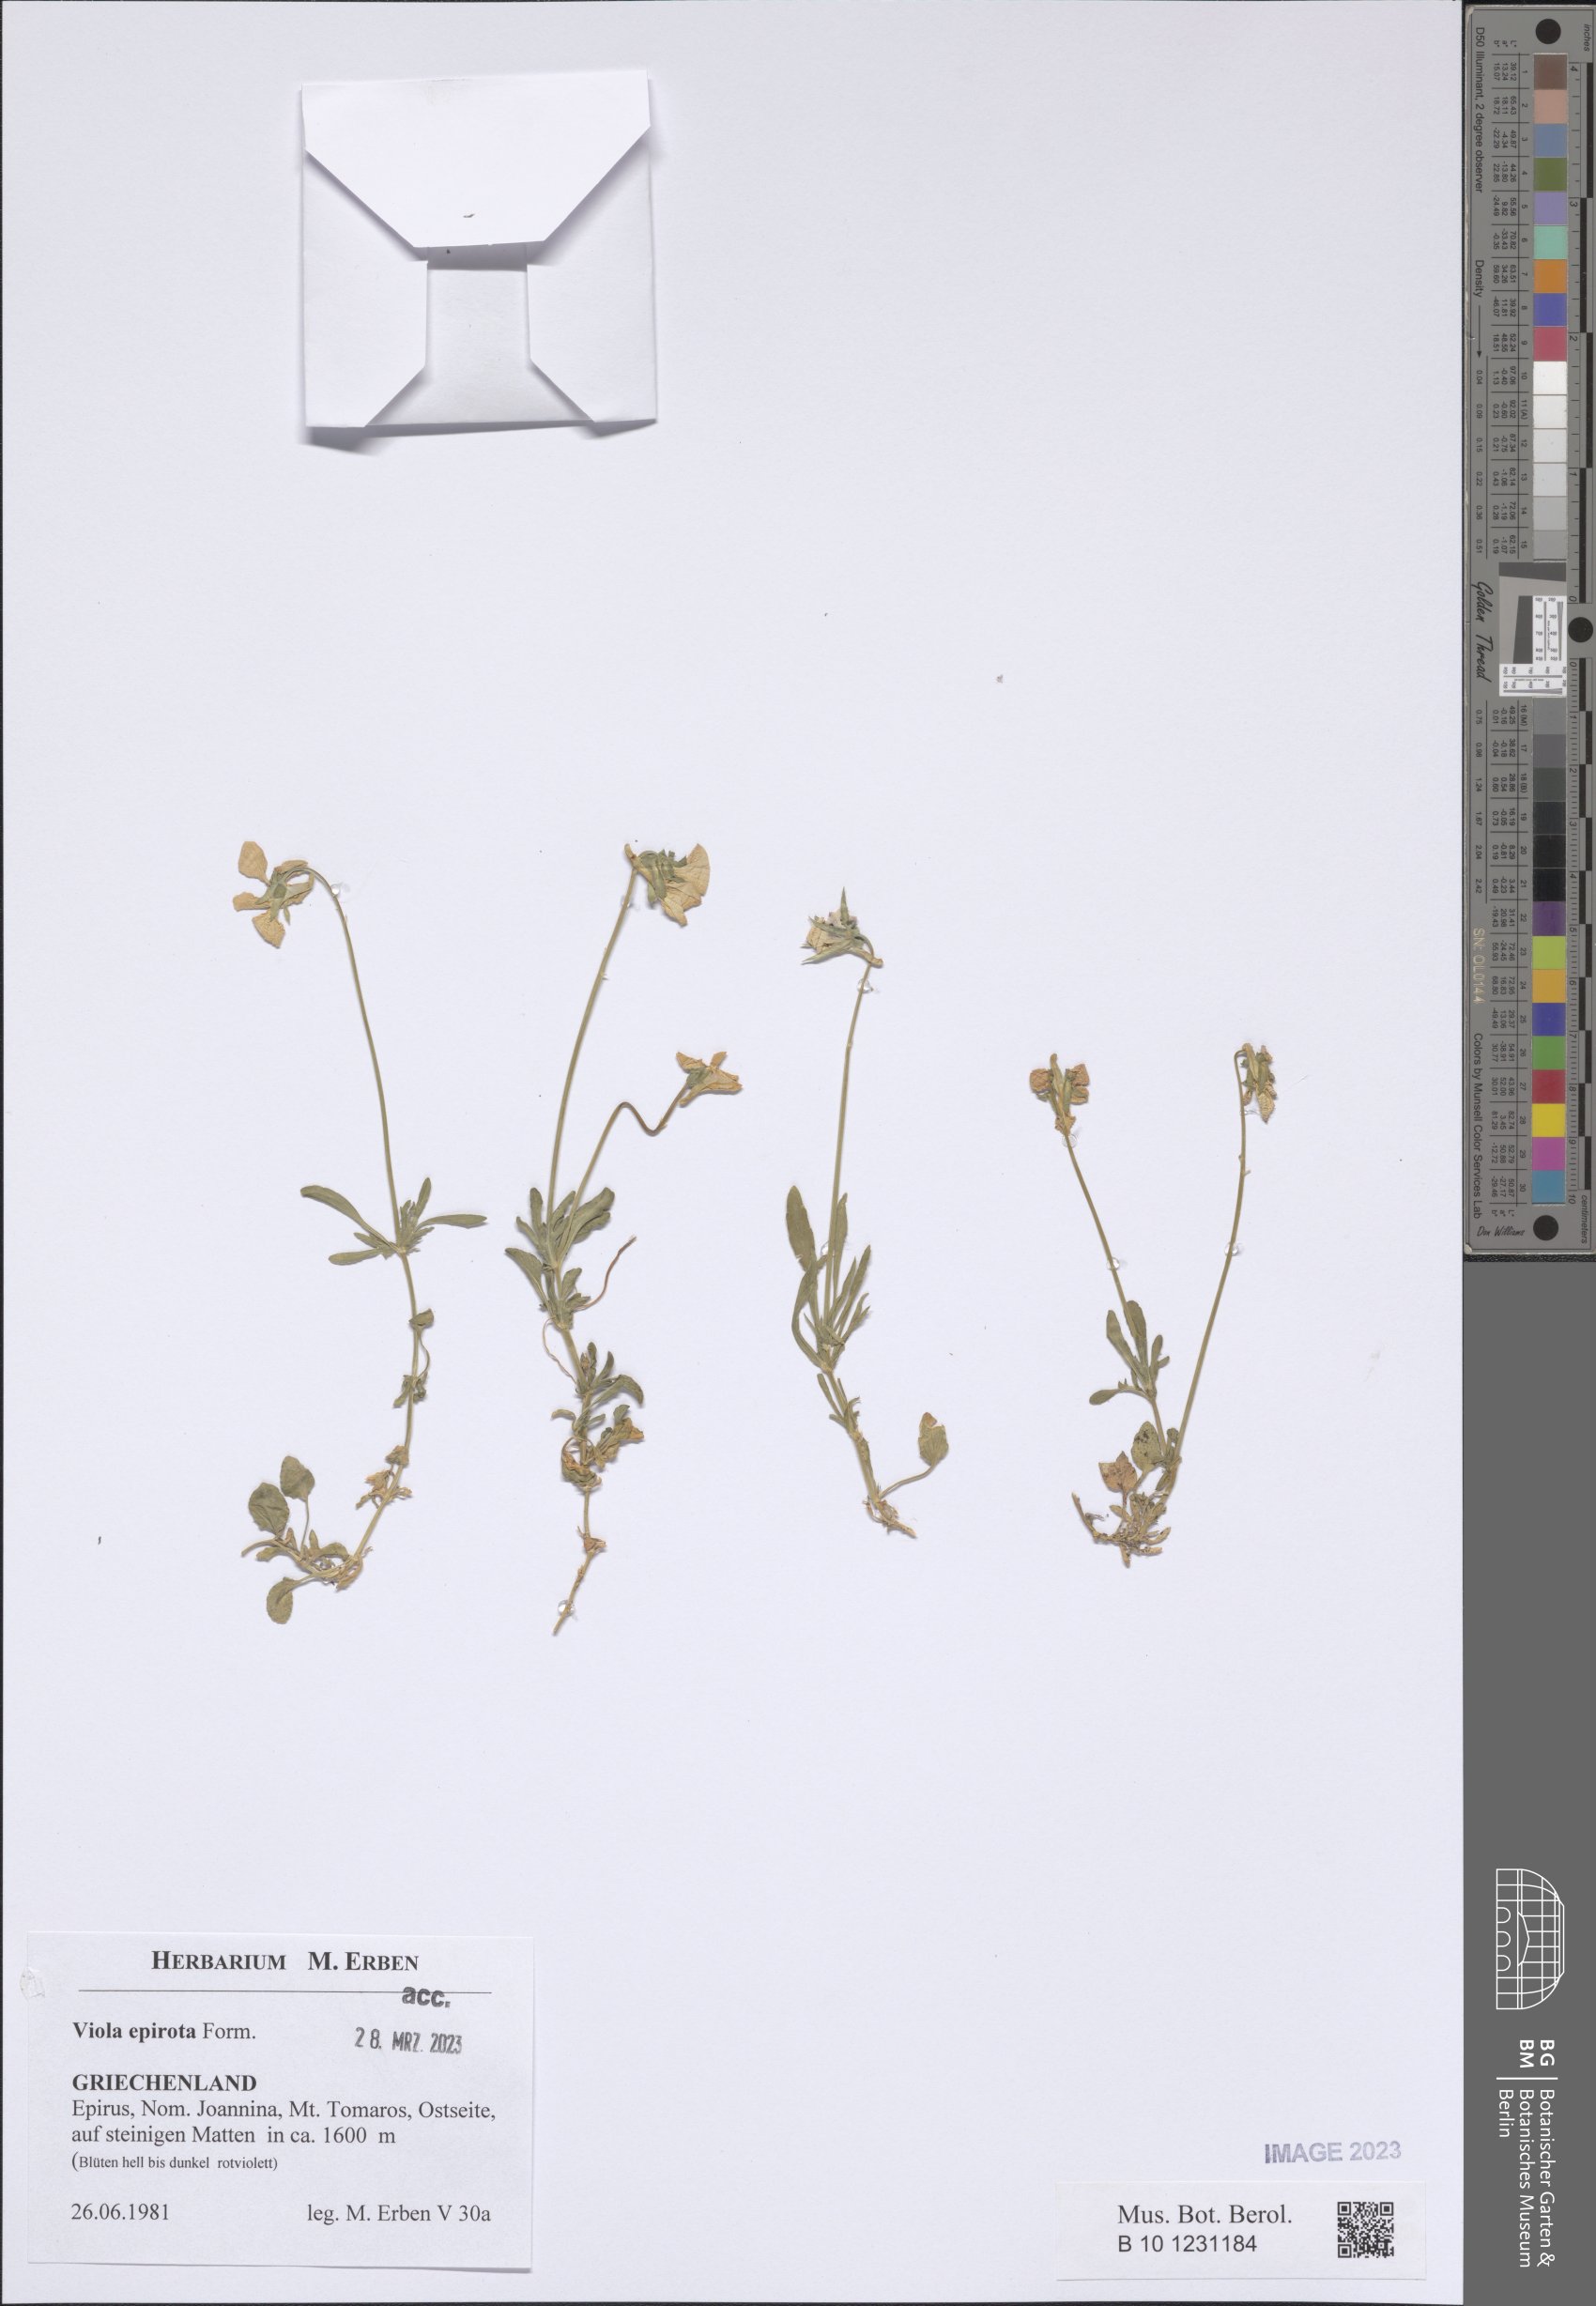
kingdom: Plantae
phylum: Tracheophyta
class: Magnoliopsida
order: Malpighiales
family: Violaceae
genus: Viola
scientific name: Viola epirota
